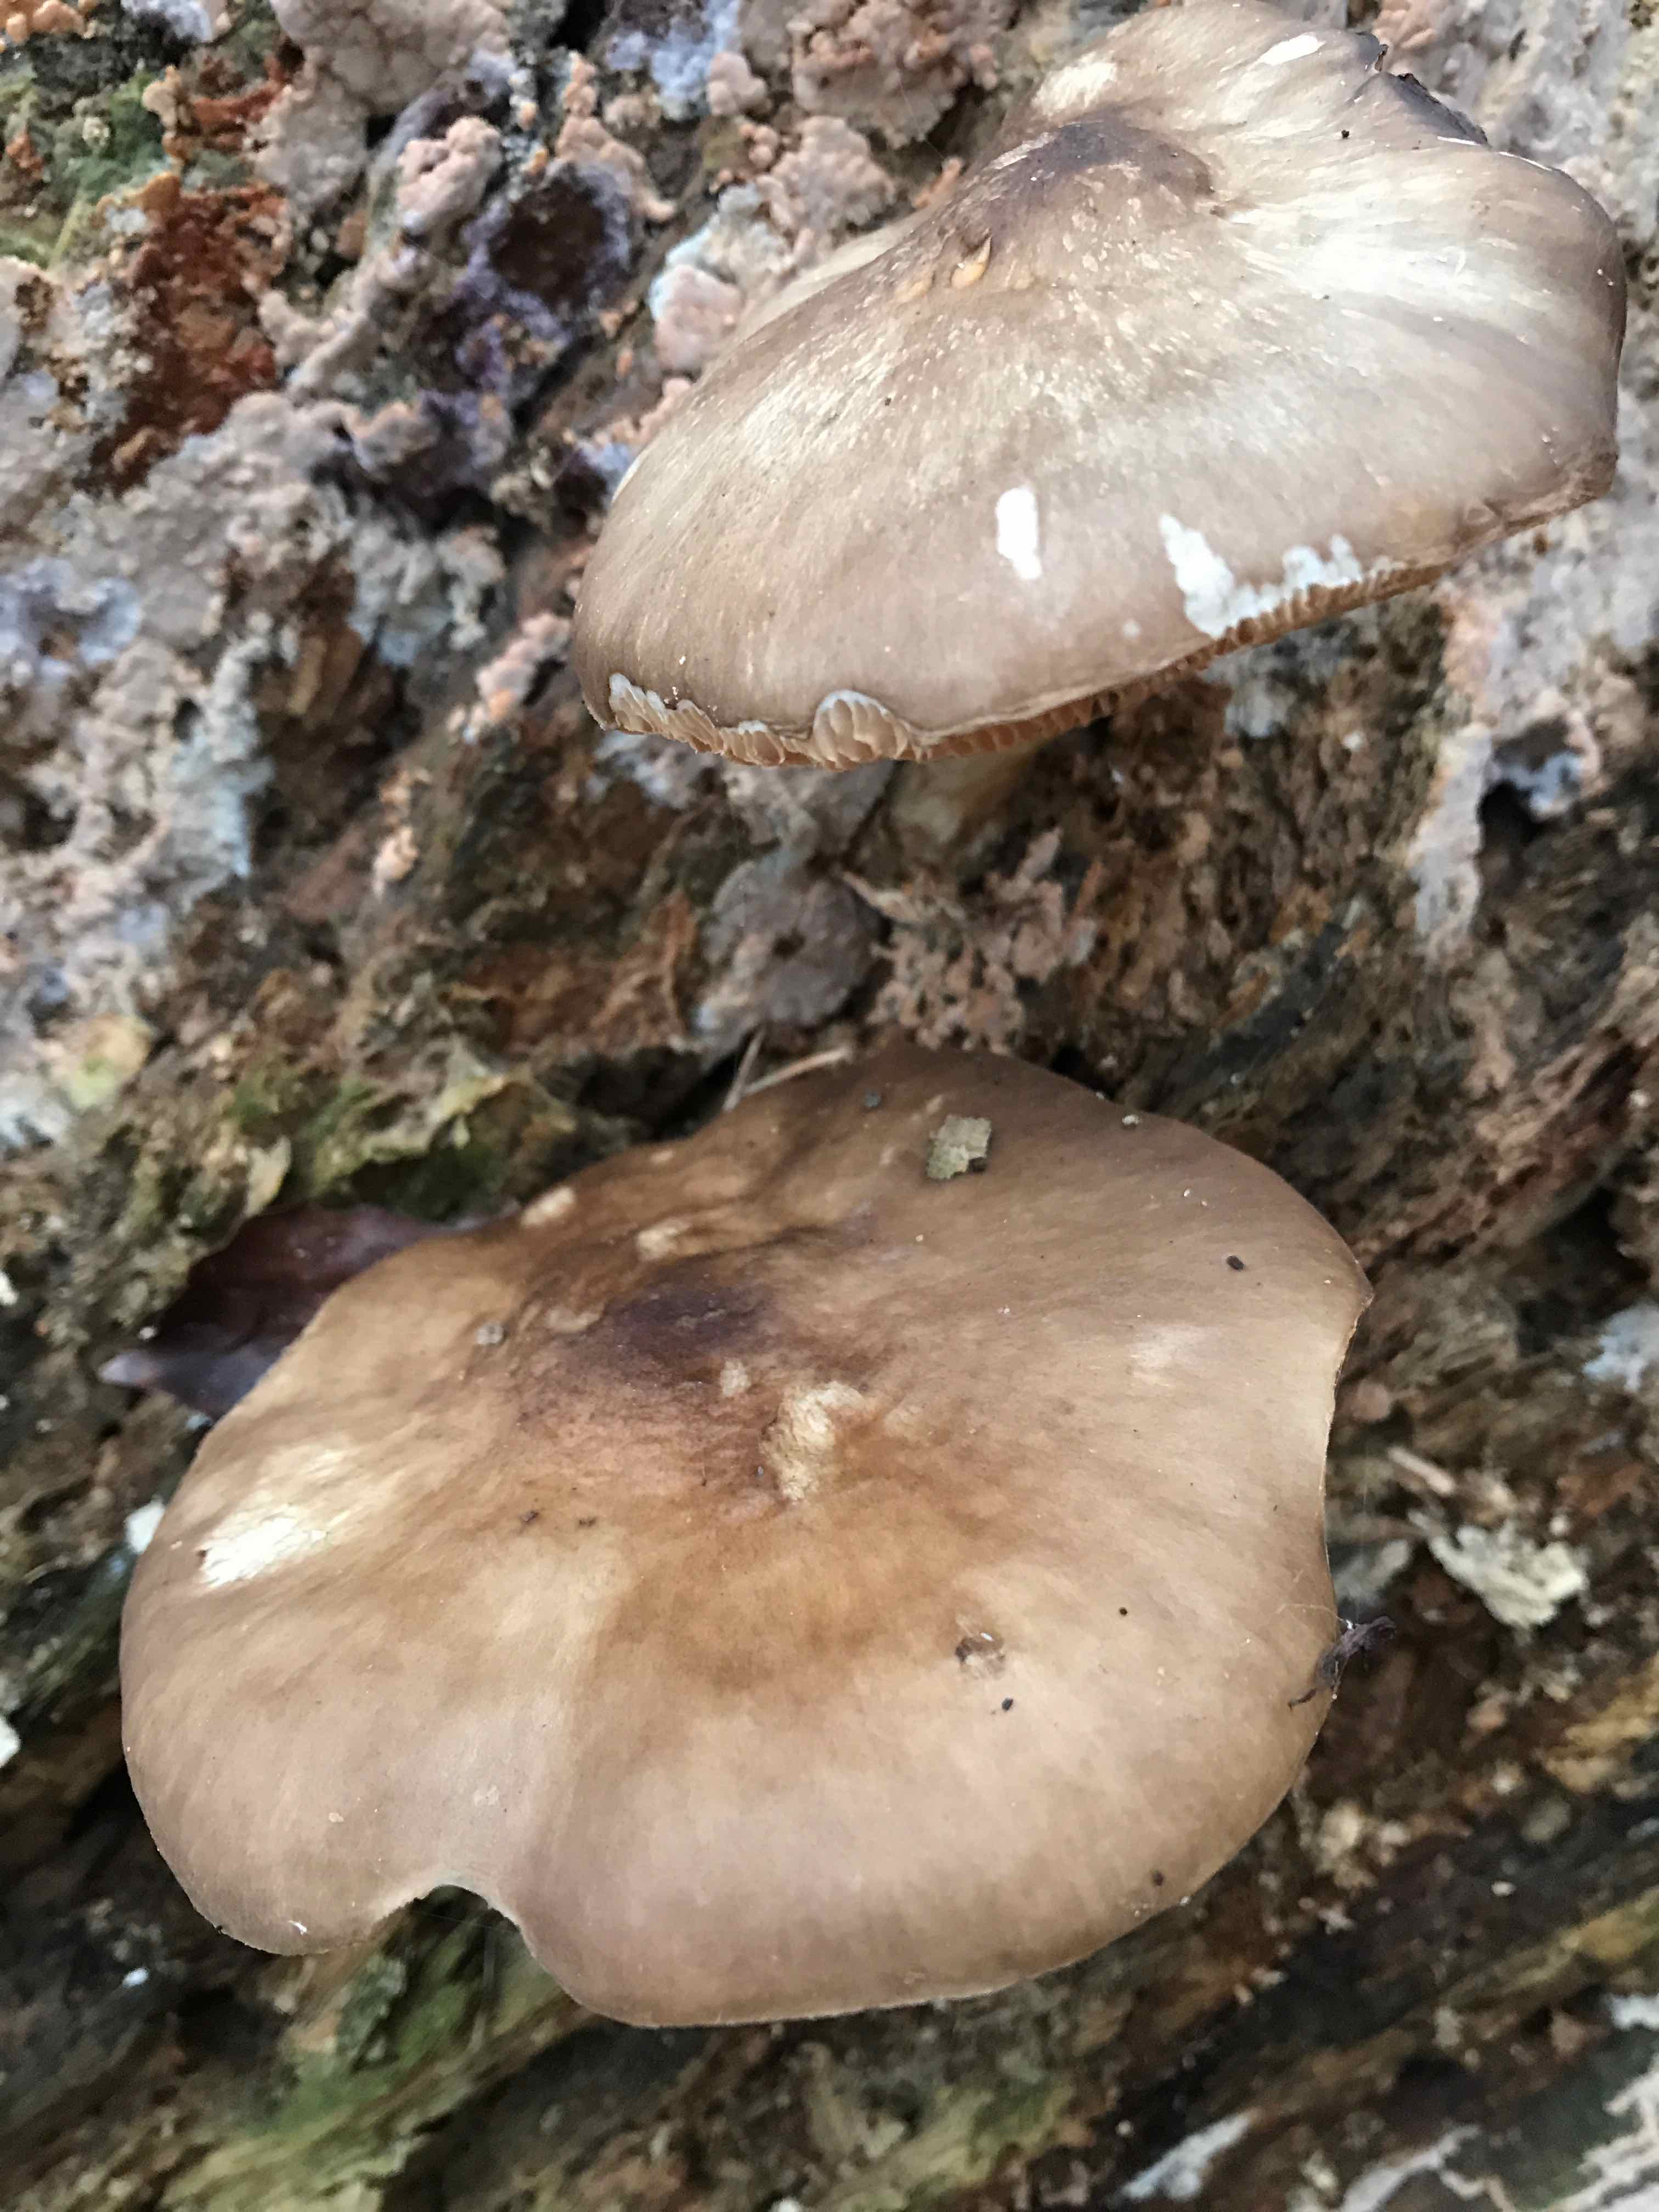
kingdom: Fungi
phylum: Basidiomycota
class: Agaricomycetes
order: Agaricales
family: Pluteaceae
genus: Pluteus
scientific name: Pluteus cervinus
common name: sodfarvet skærmhat
